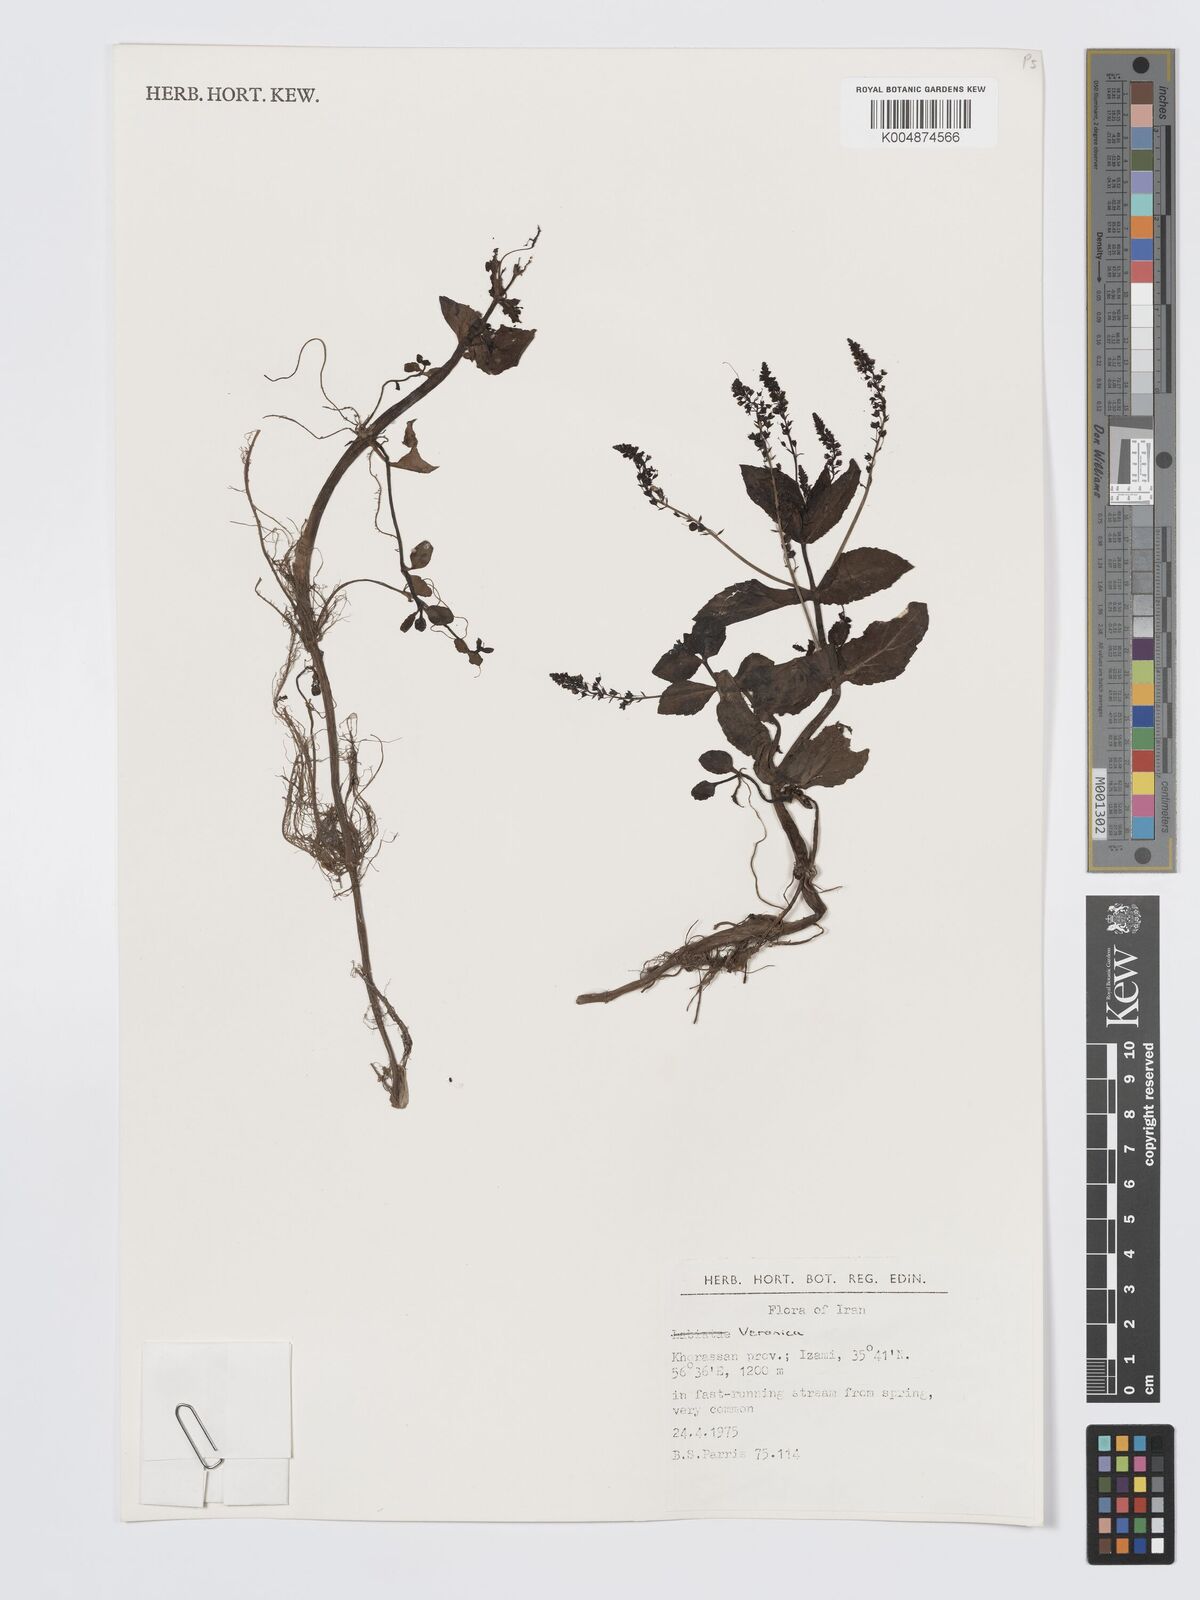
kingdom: Plantae
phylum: Tracheophyta
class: Magnoliopsida
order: Lamiales
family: Plantaginaceae
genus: Veronica
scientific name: Veronica
